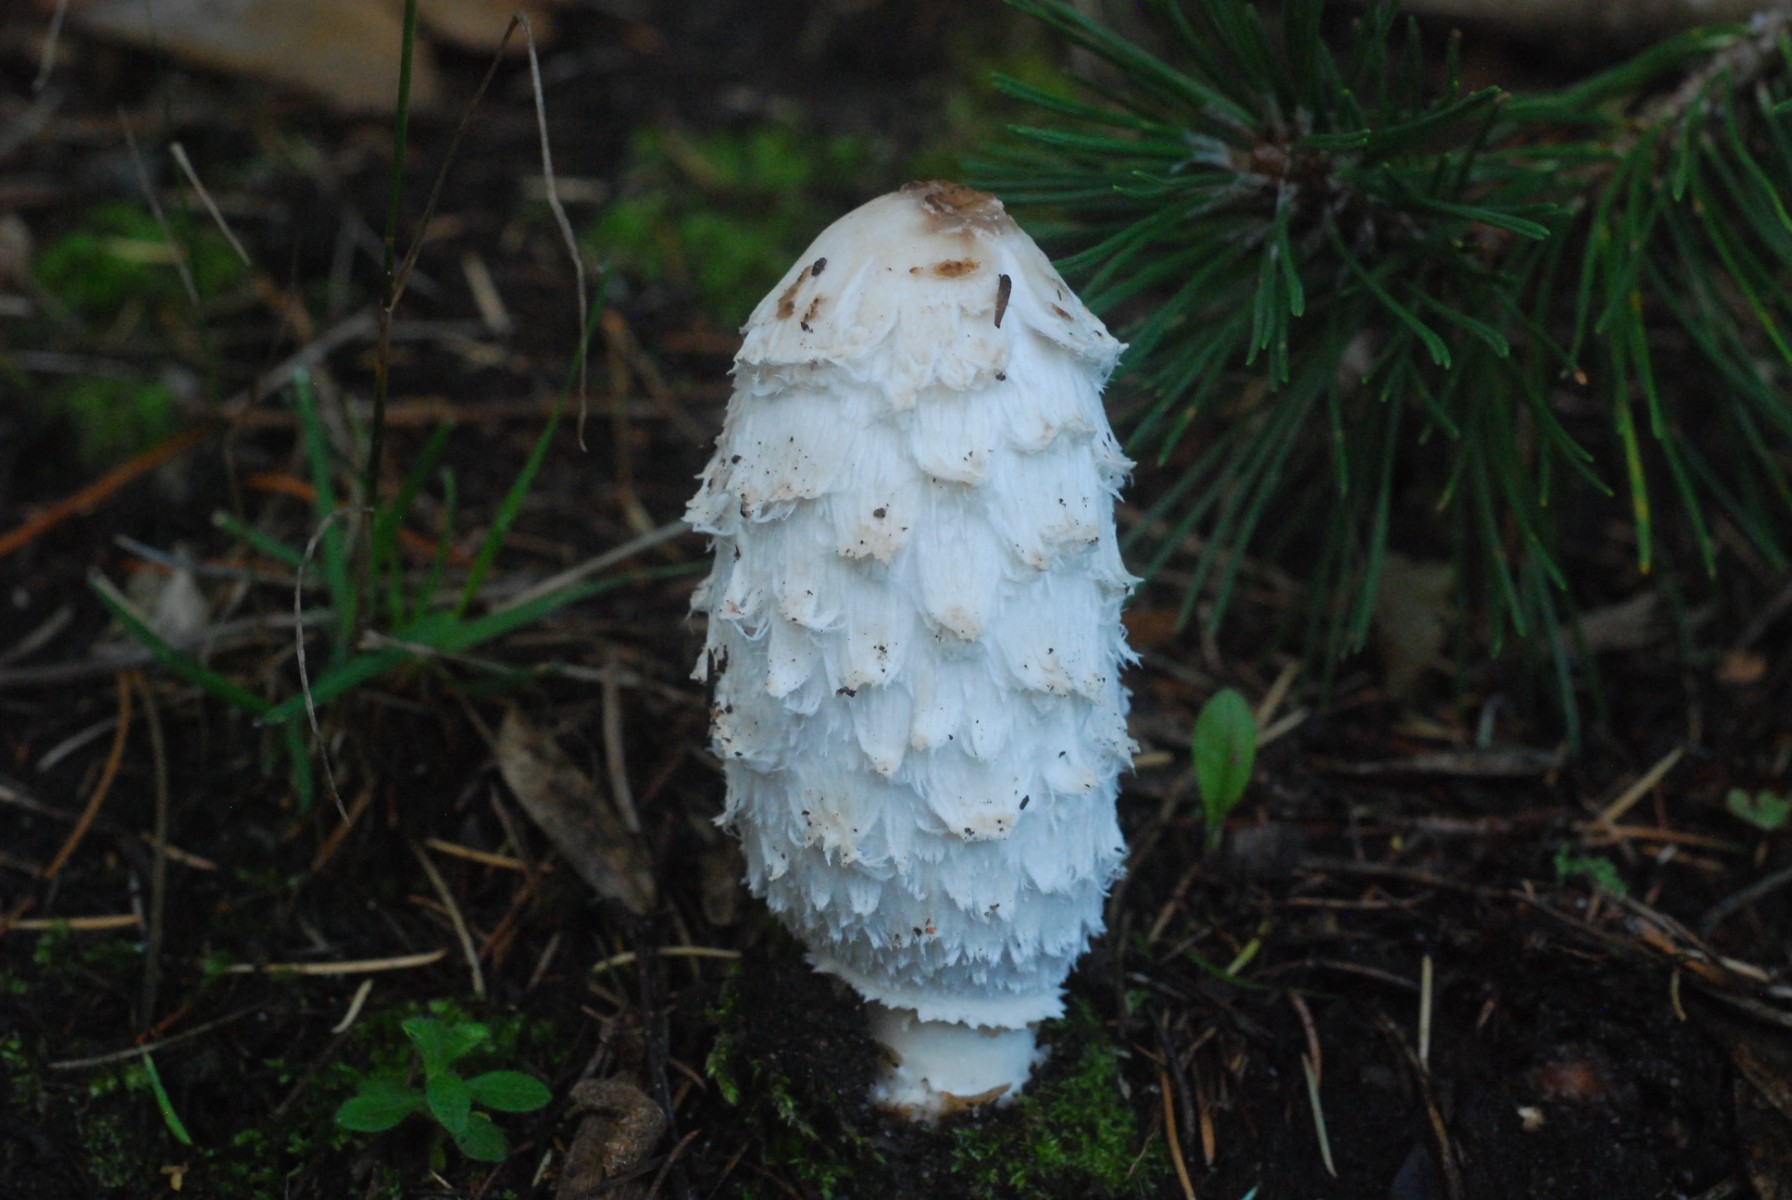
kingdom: Fungi
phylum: Basidiomycota
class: Agaricomycetes
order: Agaricales
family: Agaricaceae
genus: Coprinus
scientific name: Coprinus comatus
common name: stor parykhat
